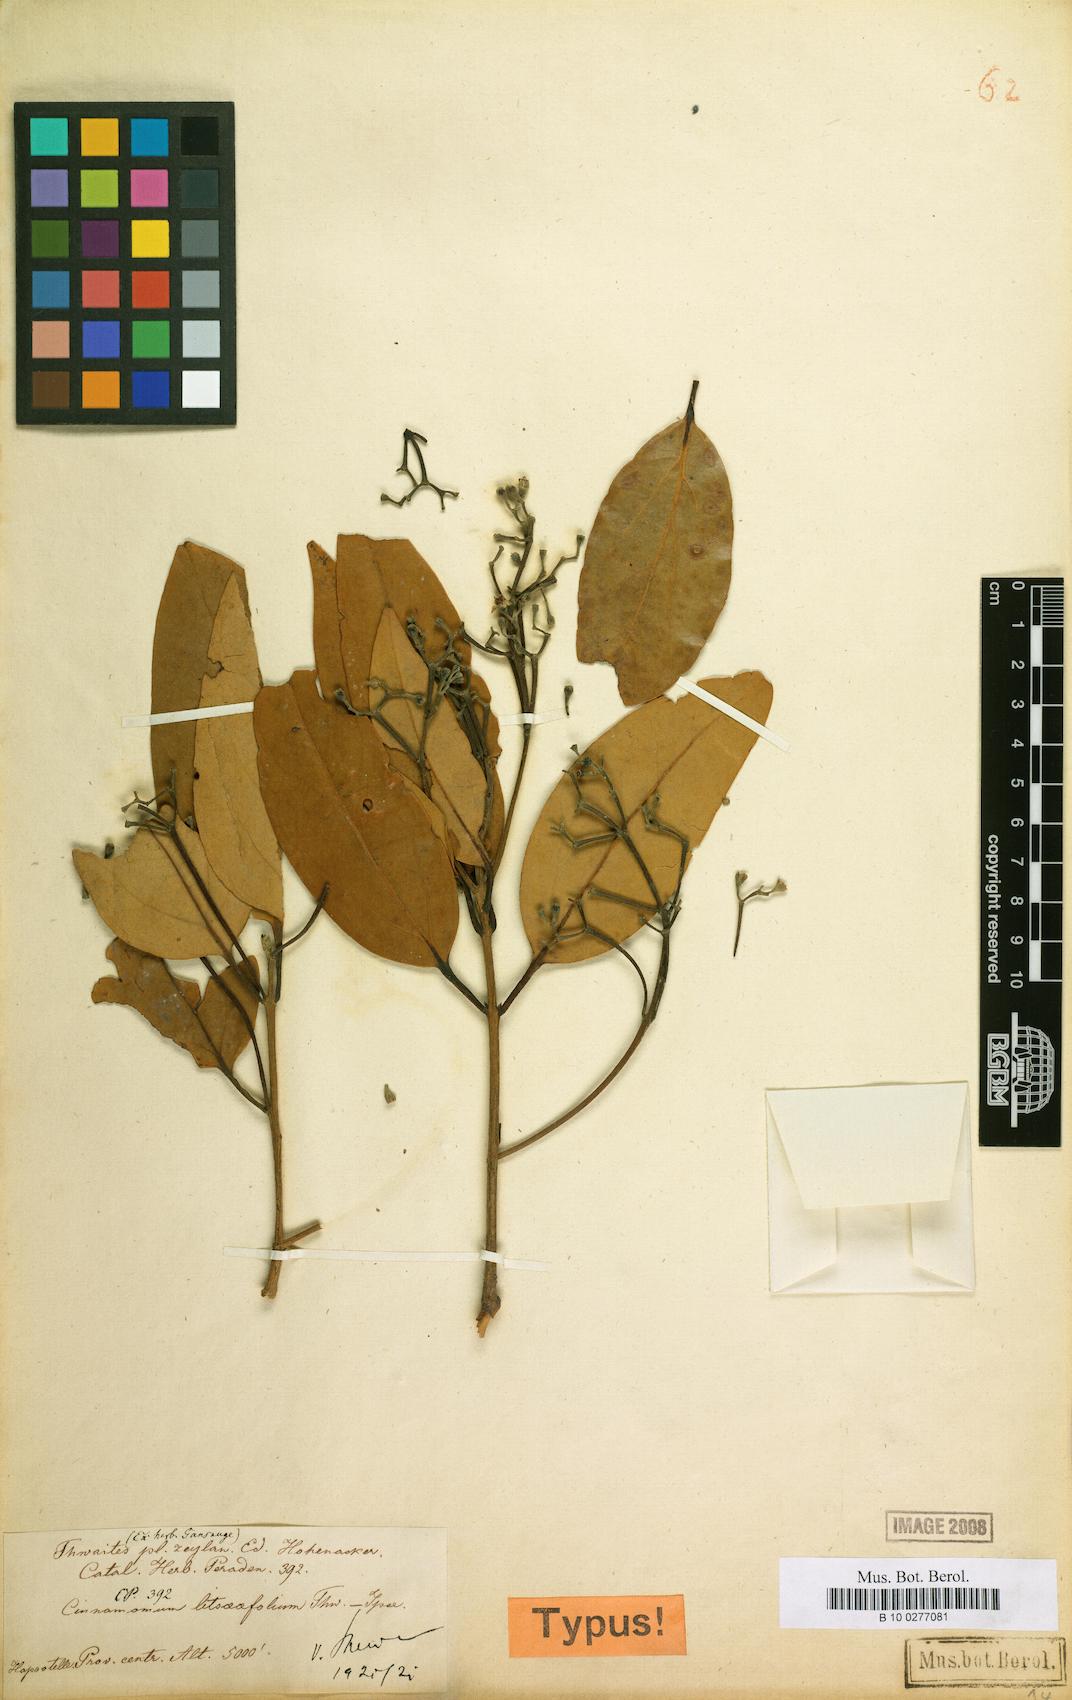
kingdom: Plantae
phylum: Tracheophyta
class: Magnoliopsida
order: Laurales
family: Lauraceae
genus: Cinnamomum
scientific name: Cinnamomum
